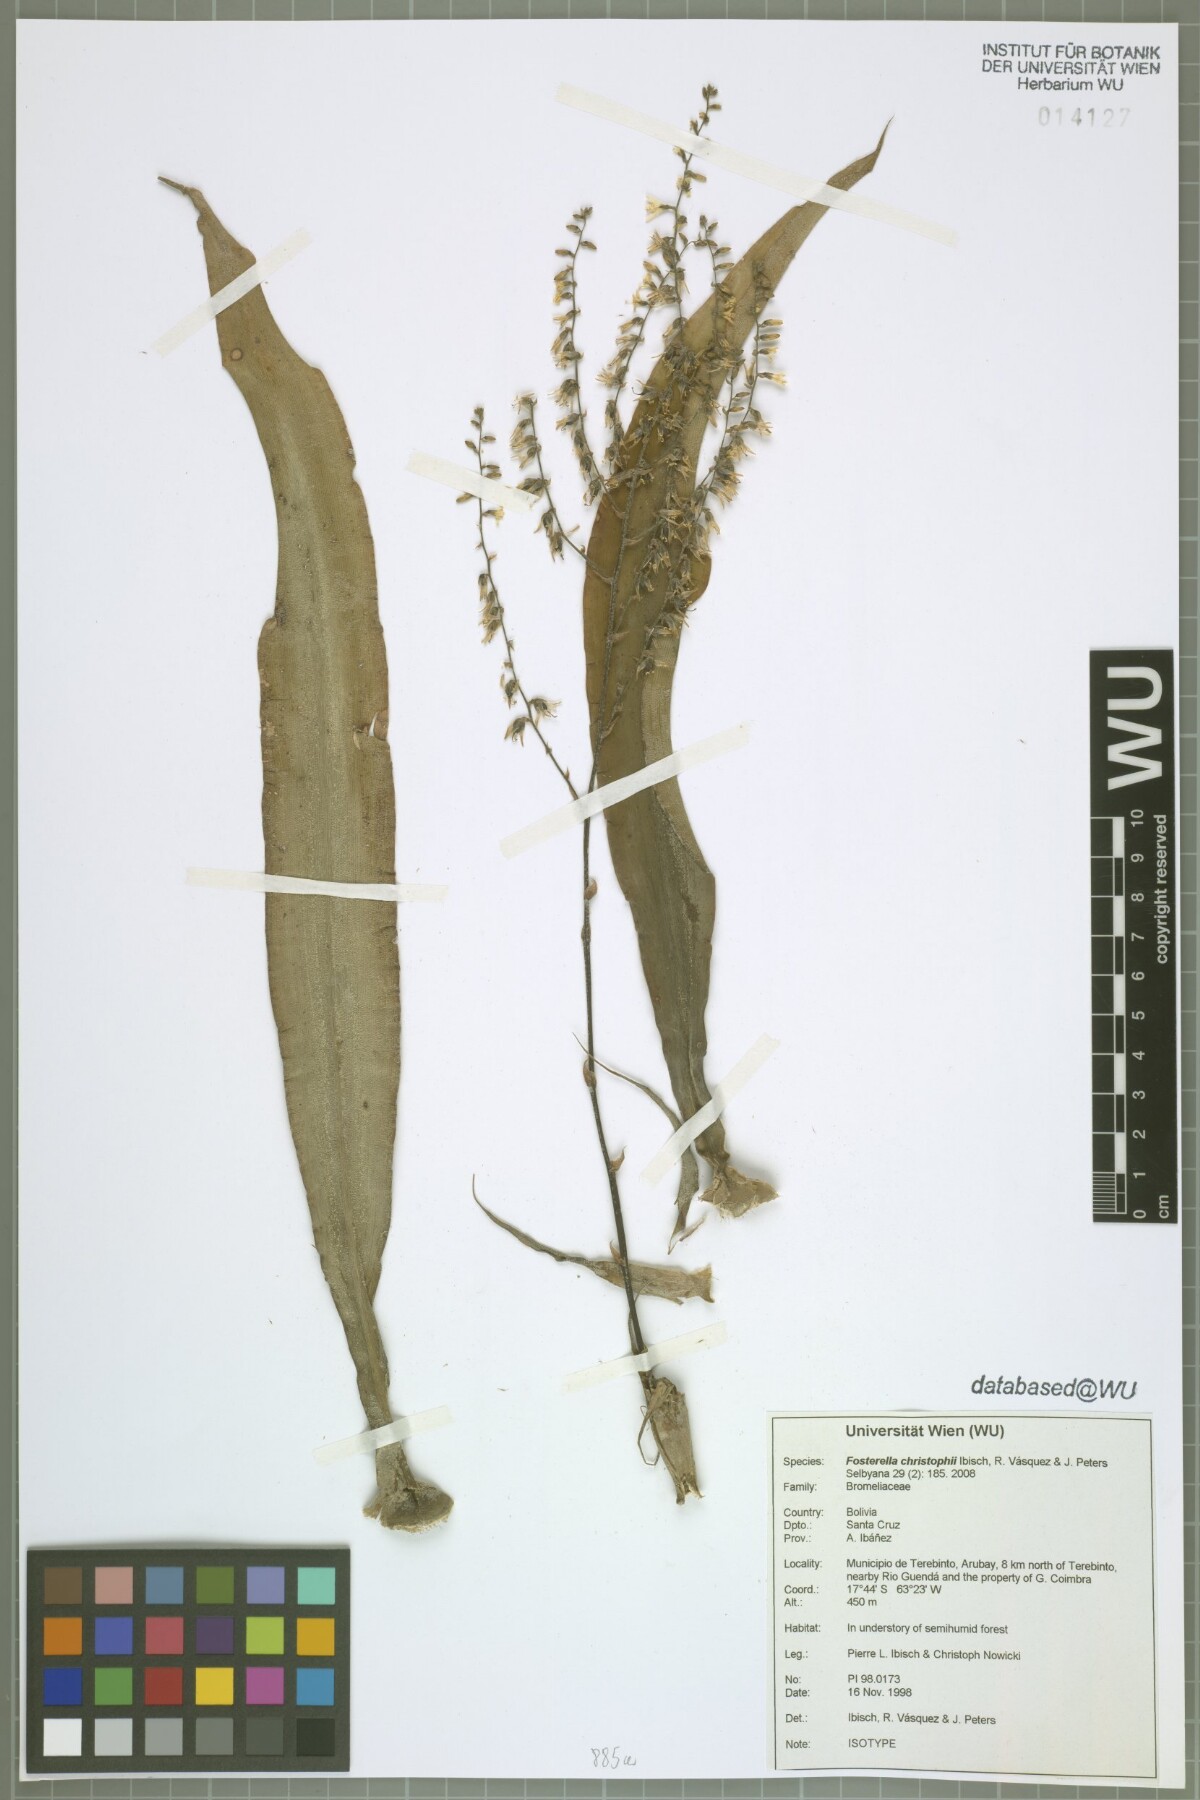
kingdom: Plantae
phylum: Tracheophyta
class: Liliopsida
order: Poales
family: Bromeliaceae
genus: Fosterella
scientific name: Fosterella christophii
